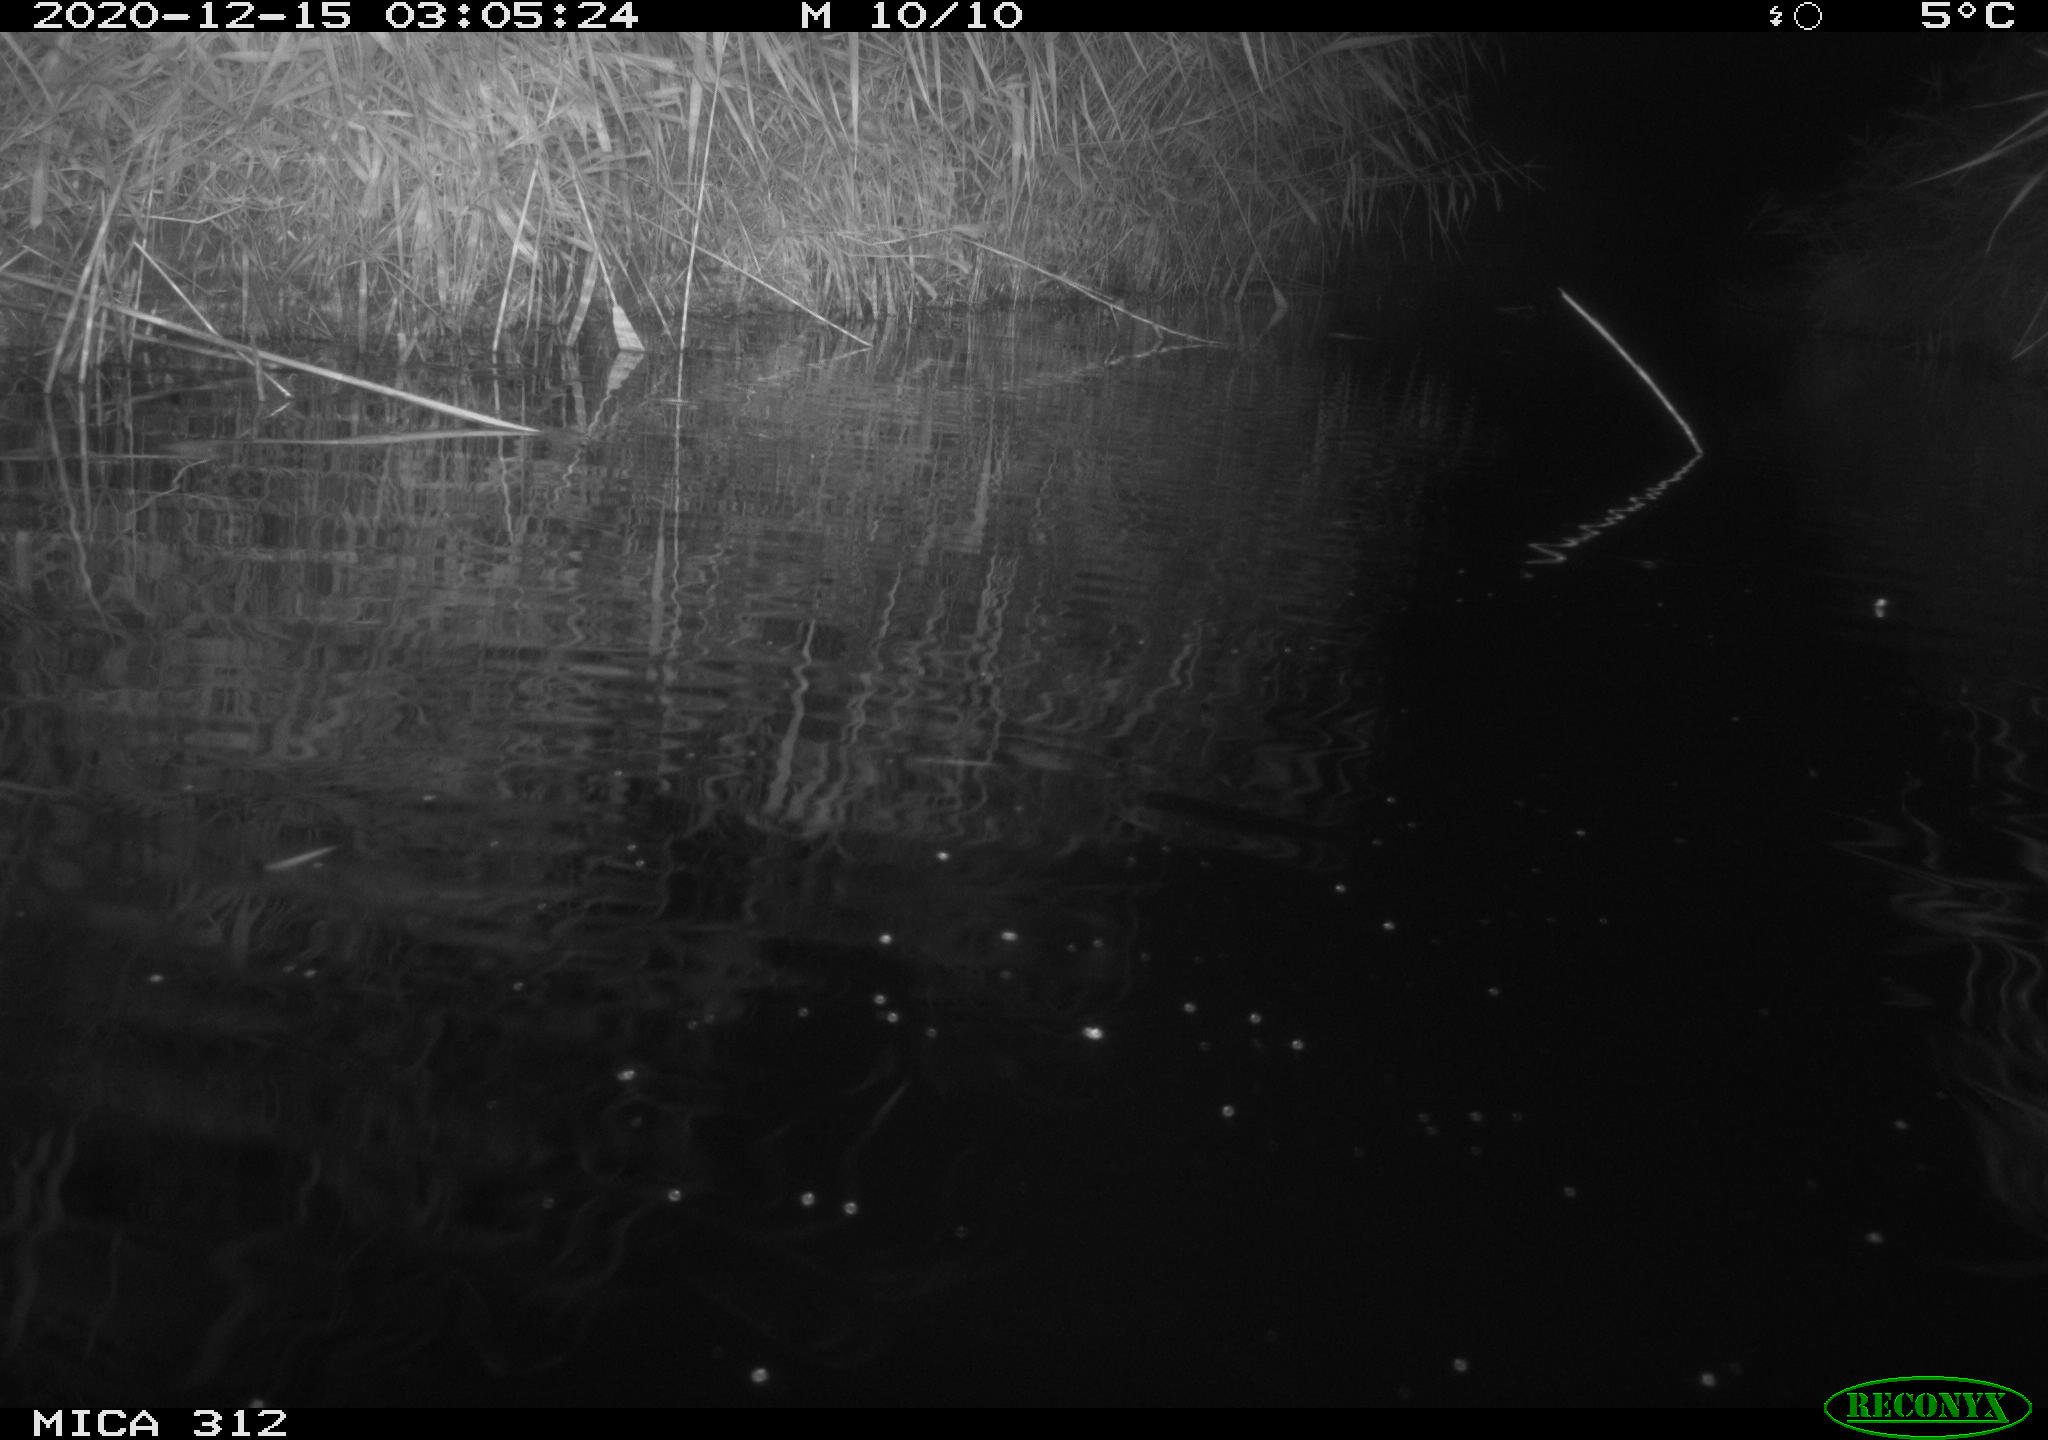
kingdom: Animalia
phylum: Chordata
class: Mammalia
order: Rodentia
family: Muridae
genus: Rattus
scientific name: Rattus norvegicus
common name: Brown rat
